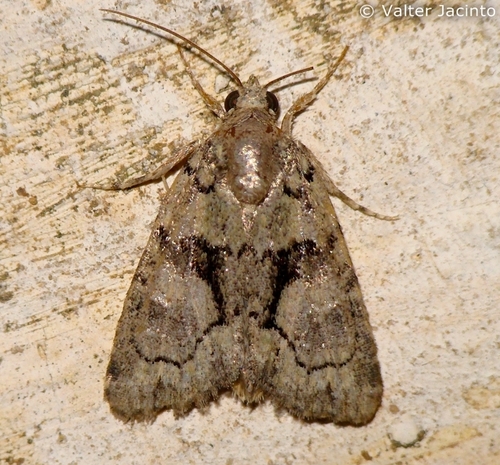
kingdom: Animalia
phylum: Arthropoda
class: Insecta
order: Lepidoptera
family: Noctuidae
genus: Cryphia
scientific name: Cryphia algae
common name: Tree-lichen beauty
